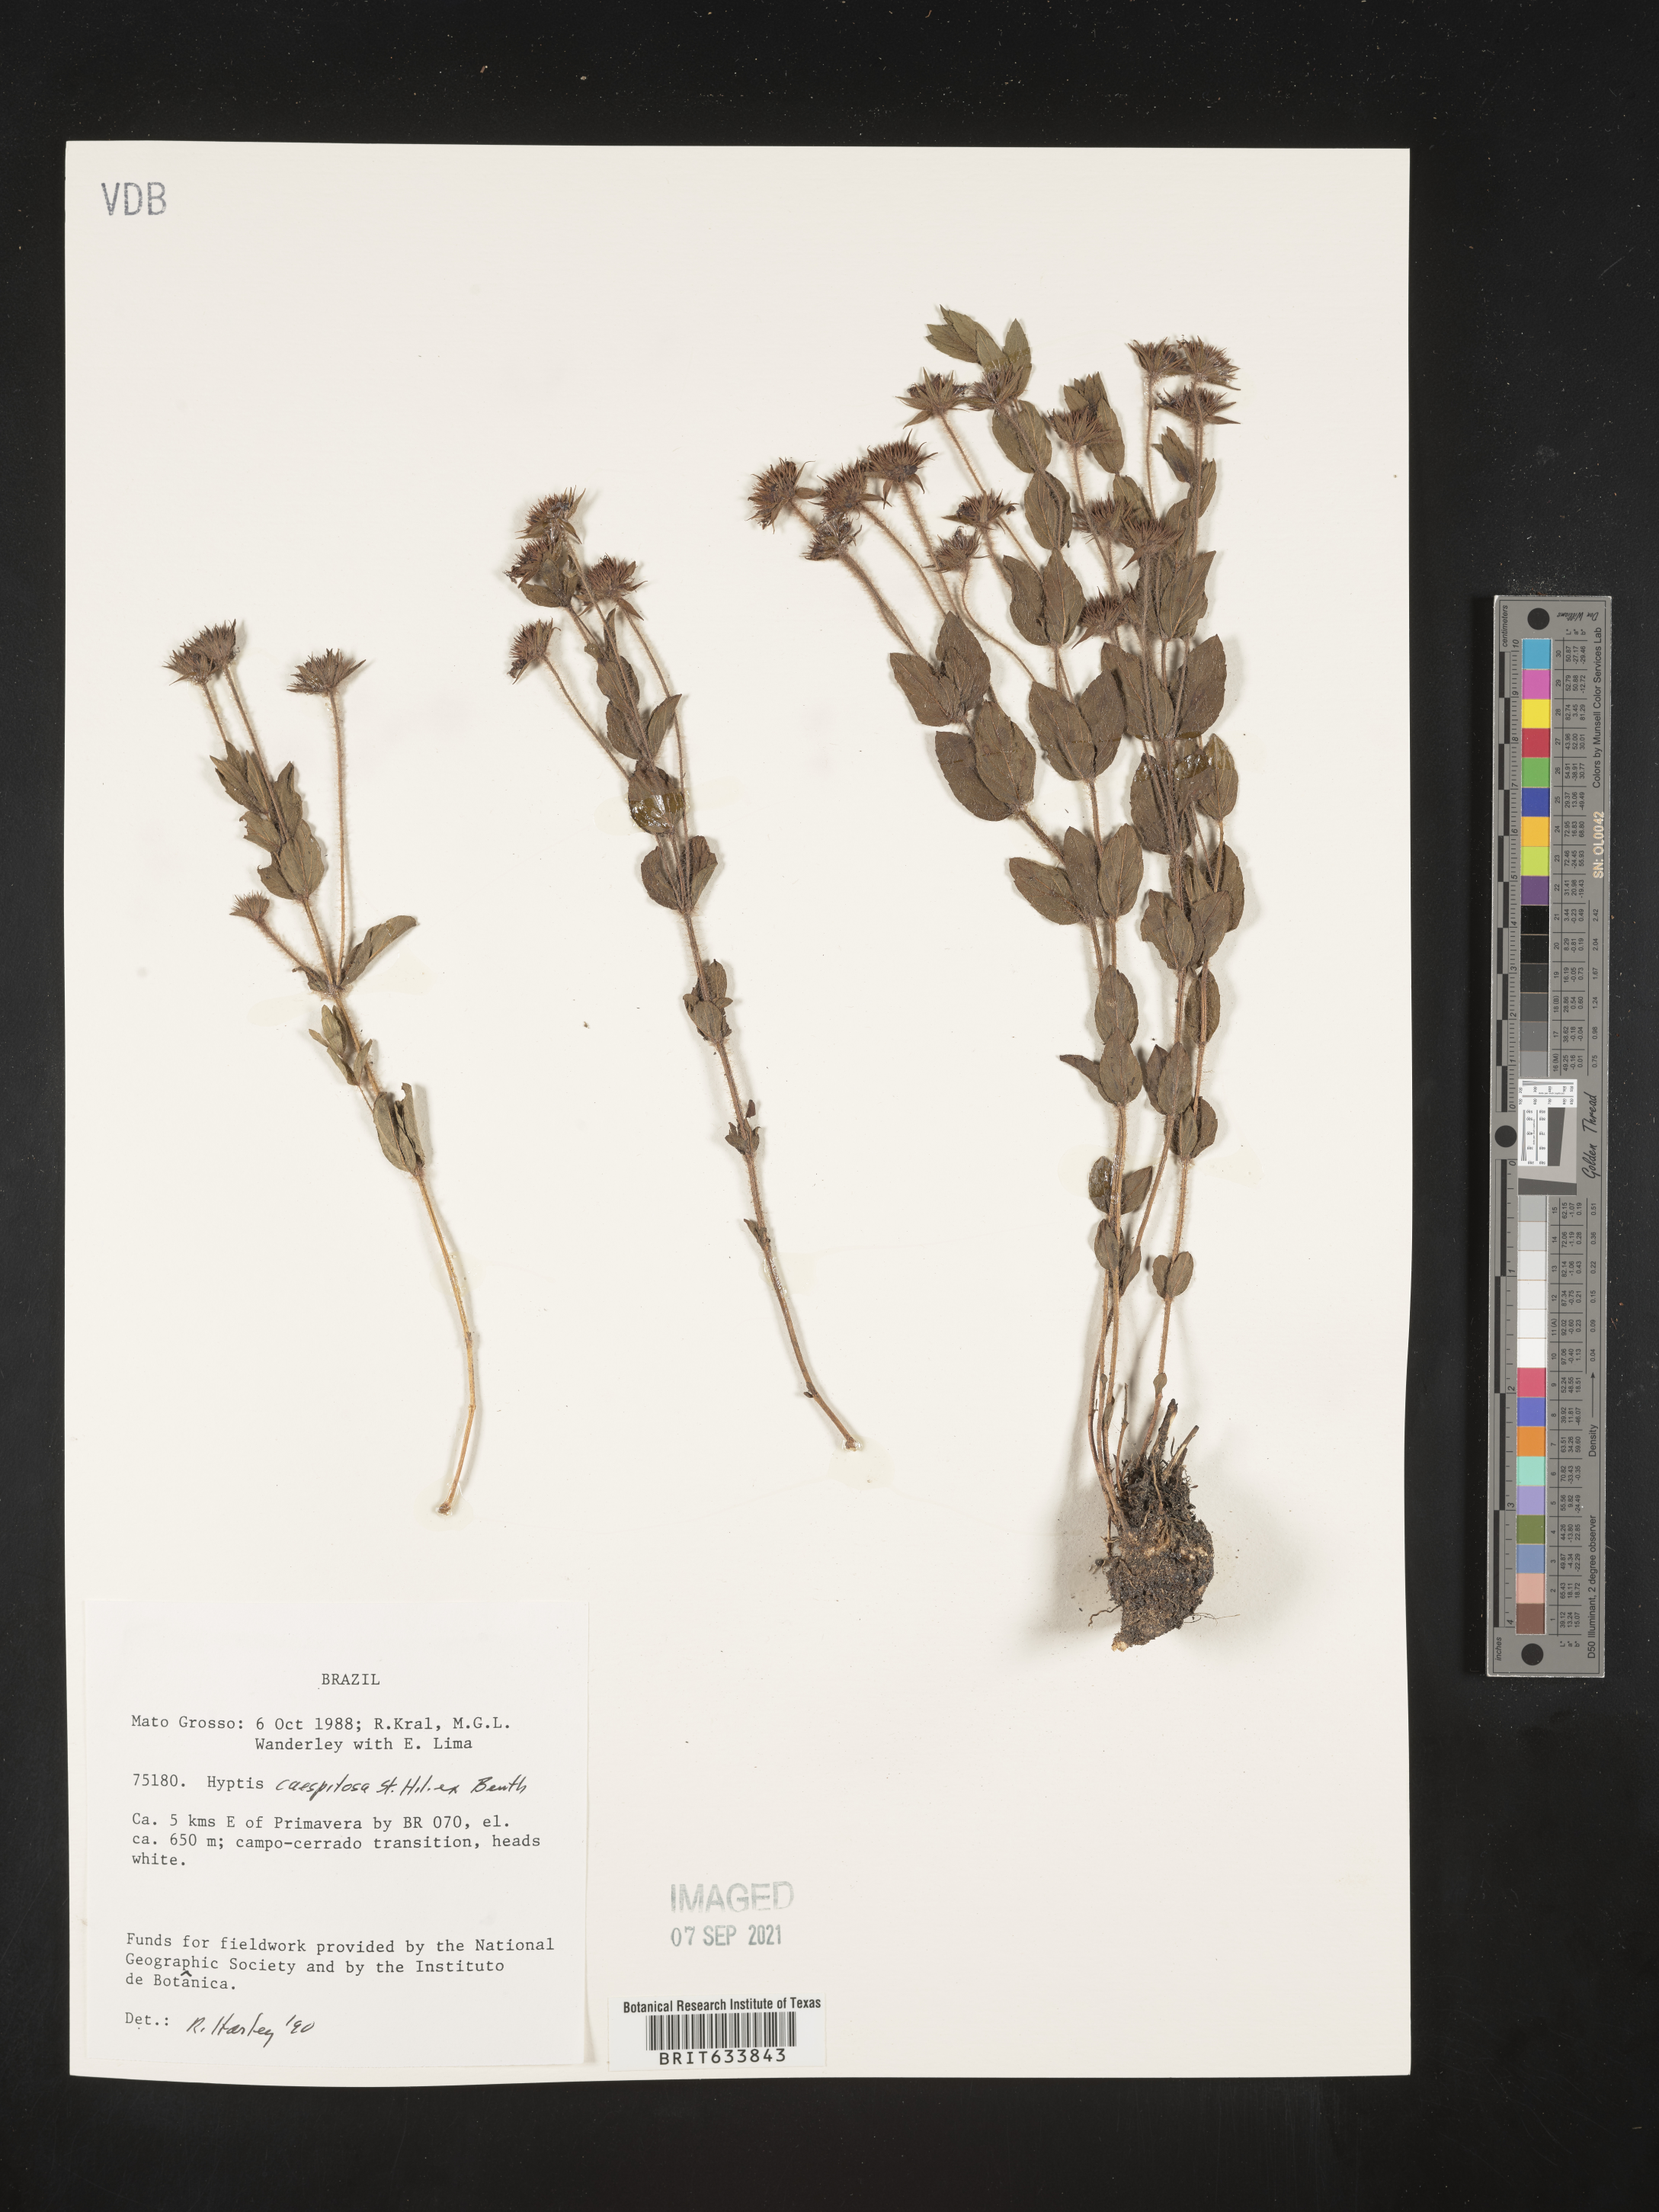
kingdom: Plantae
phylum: Tracheophyta
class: Magnoliopsida
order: Lamiales
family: Lamiaceae
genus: Hyptis
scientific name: Hyptis
